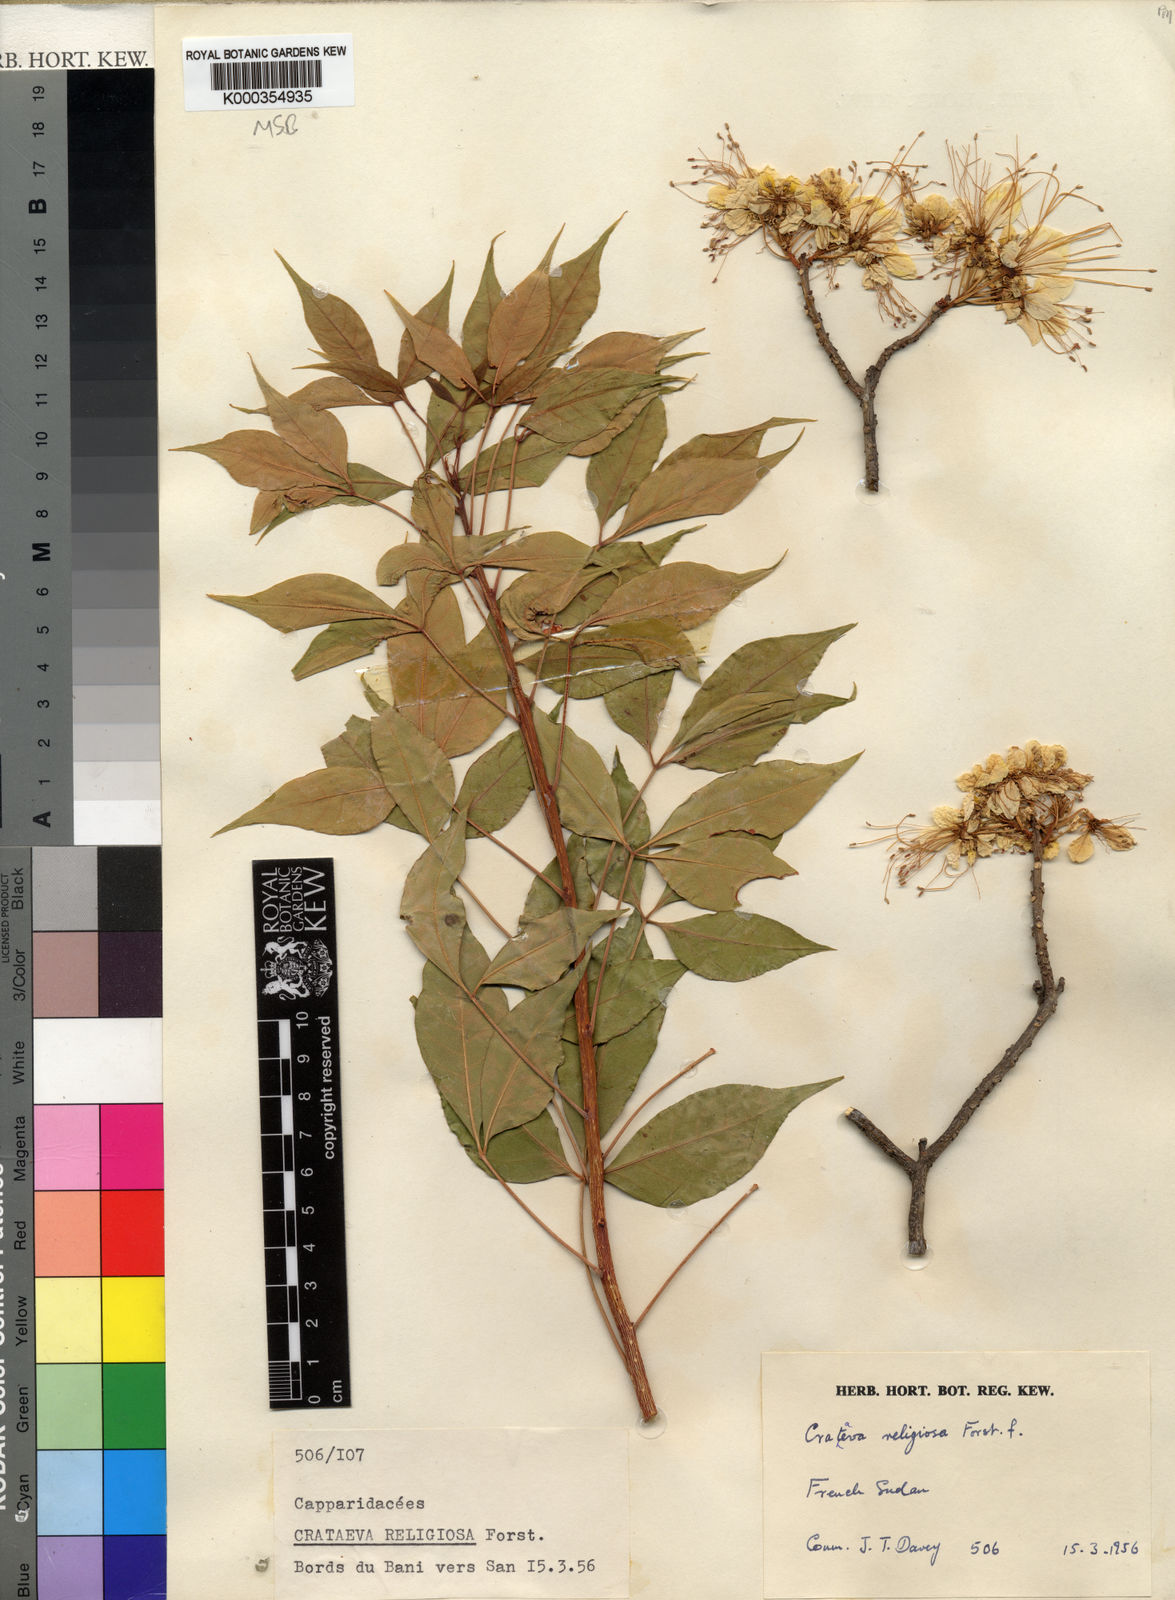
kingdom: Plantae
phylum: Tracheophyta
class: Magnoliopsida
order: Brassicales
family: Capparaceae
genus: Crateva
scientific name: Crateva adansonii
